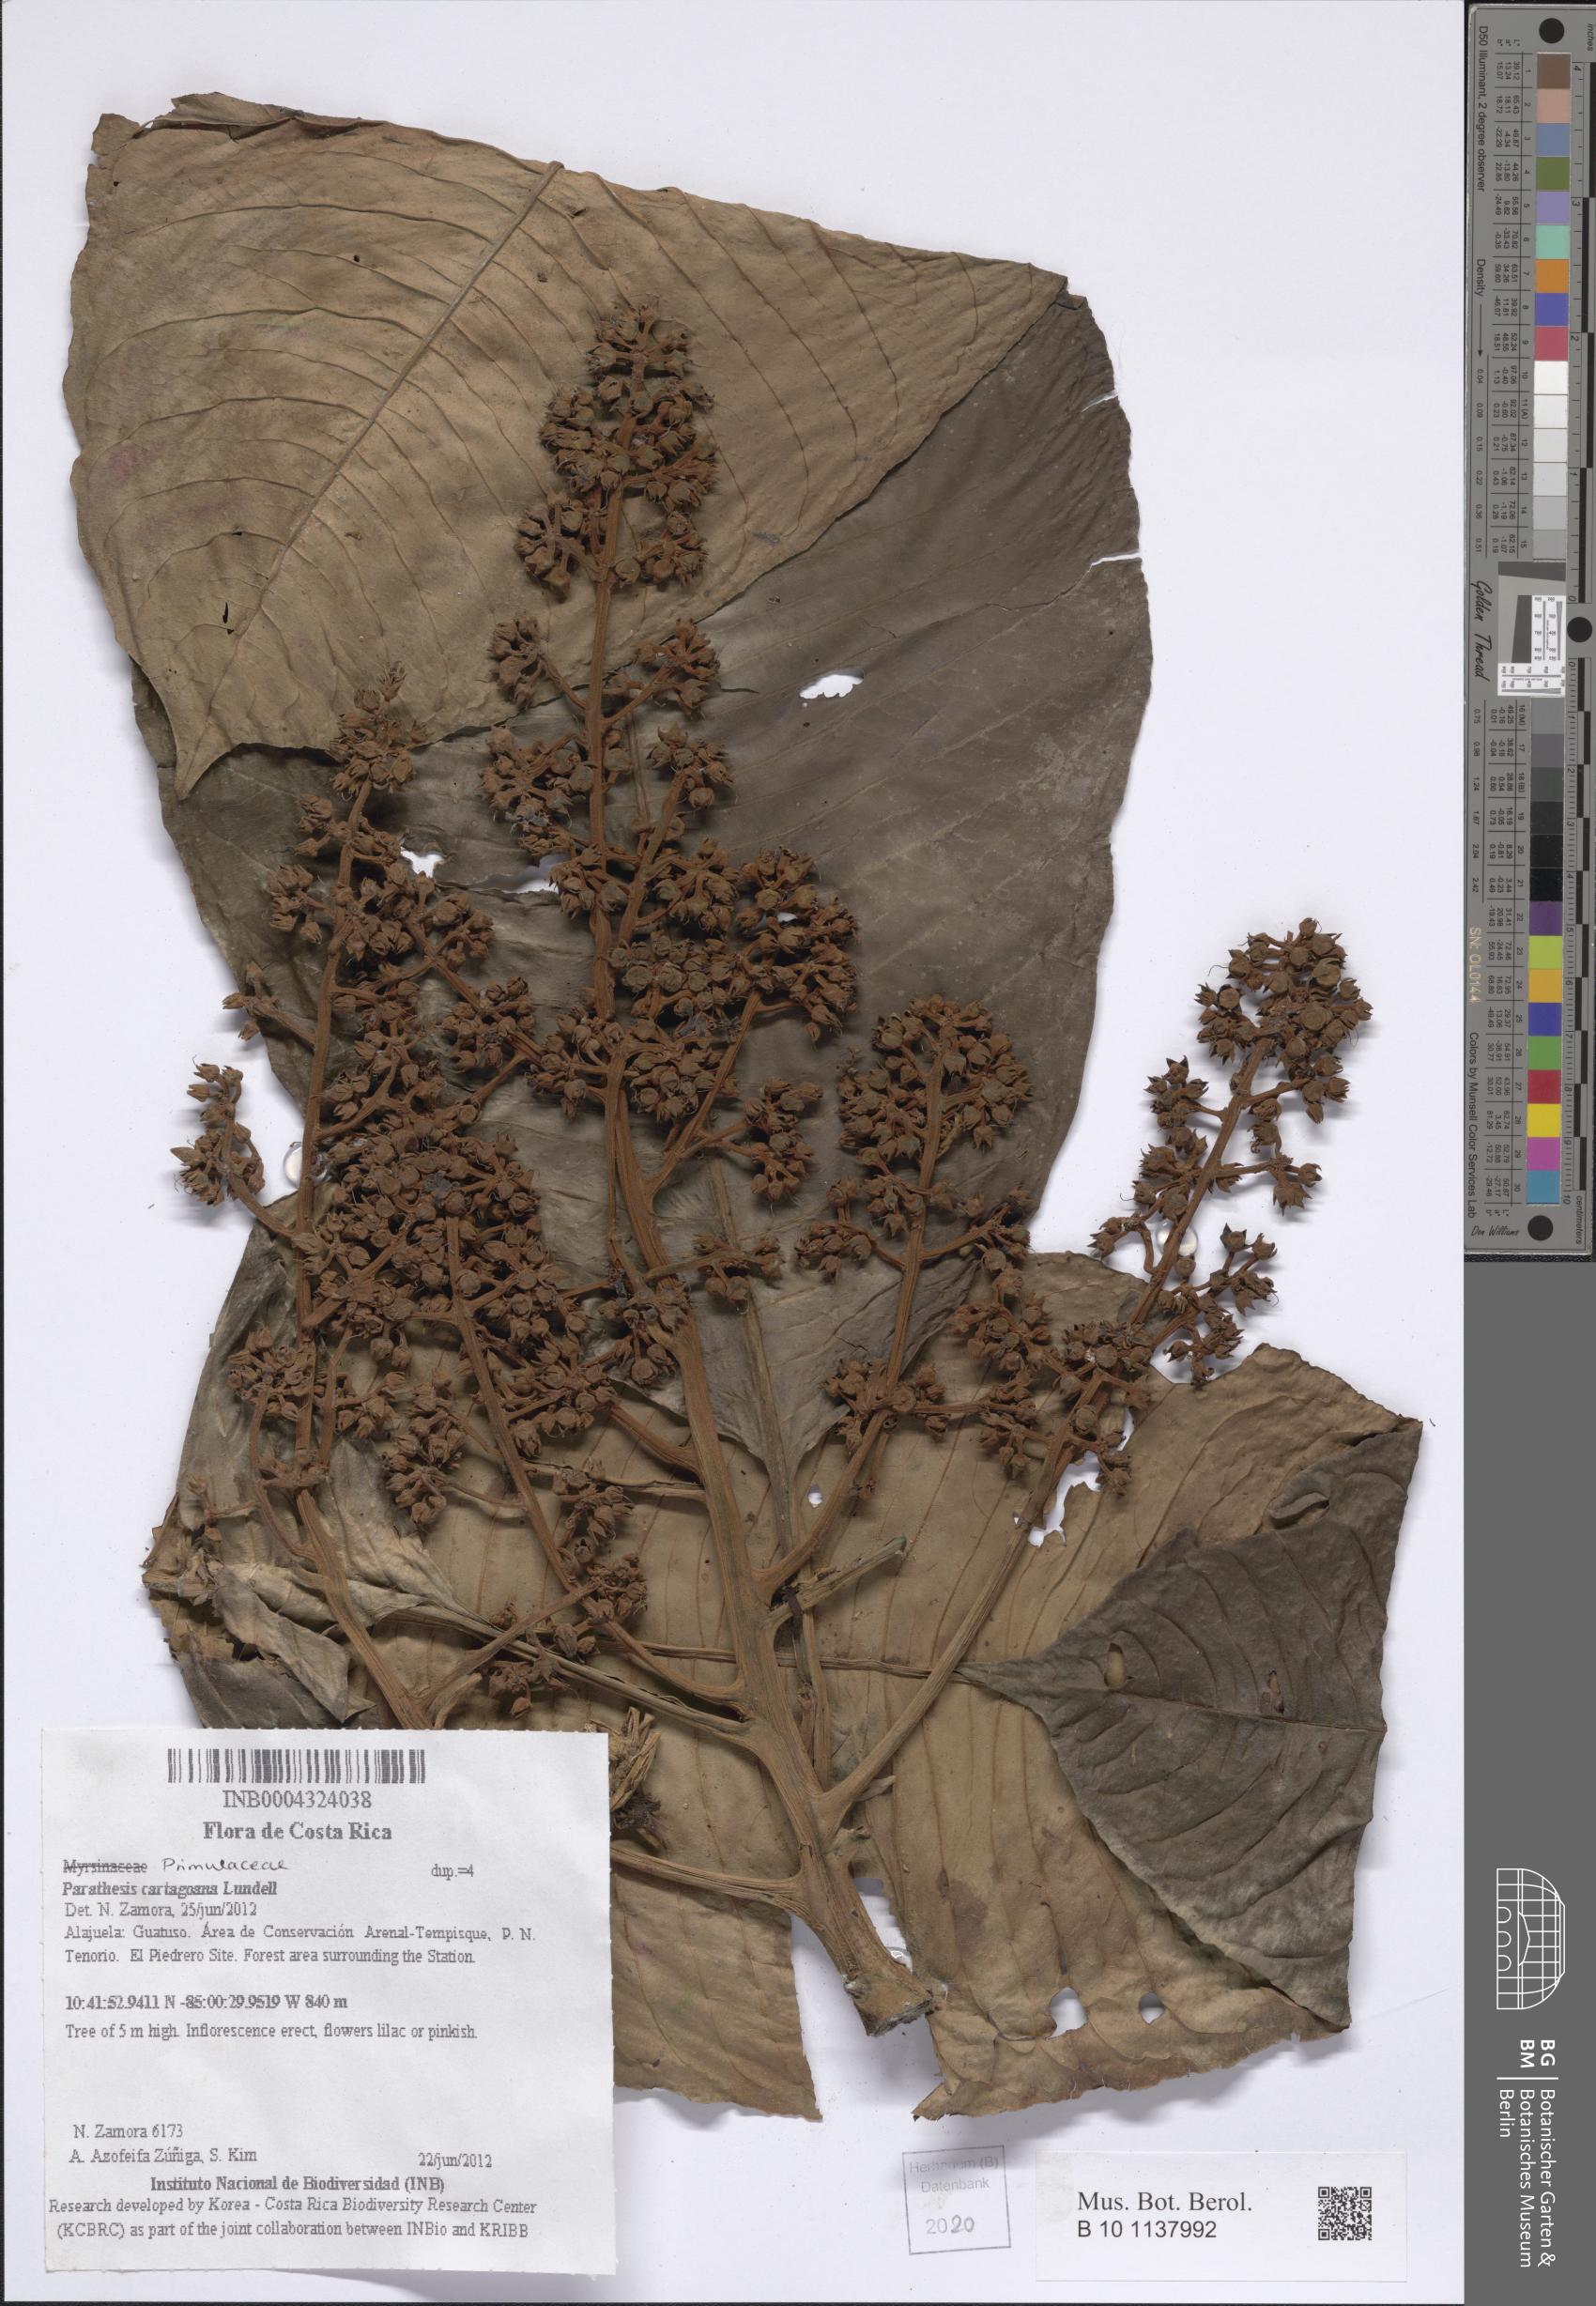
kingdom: Plantae
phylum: Tracheophyta
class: Magnoliopsida
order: Ericales
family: Primulaceae
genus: Parathesis
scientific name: Parathesis cartagoana
